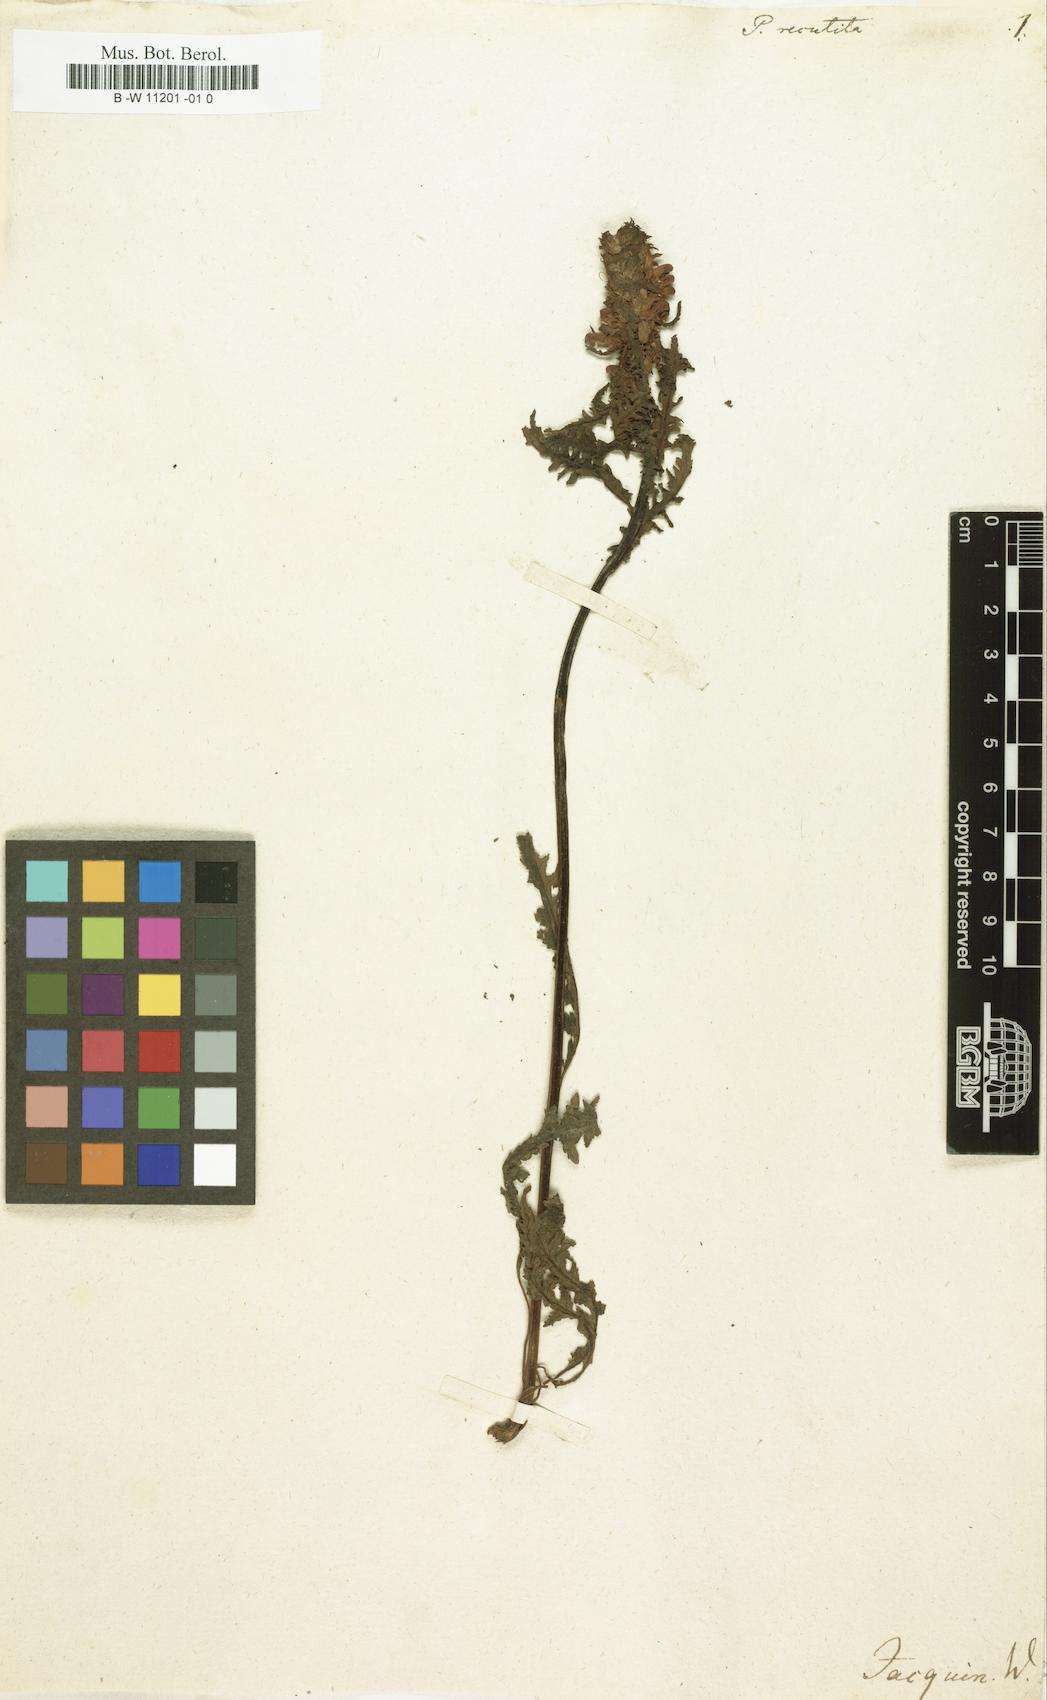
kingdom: Plantae
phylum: Tracheophyta
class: Magnoliopsida
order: Lamiales
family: Orobanchaceae
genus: Pedicularis
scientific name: Pedicularis recutita
